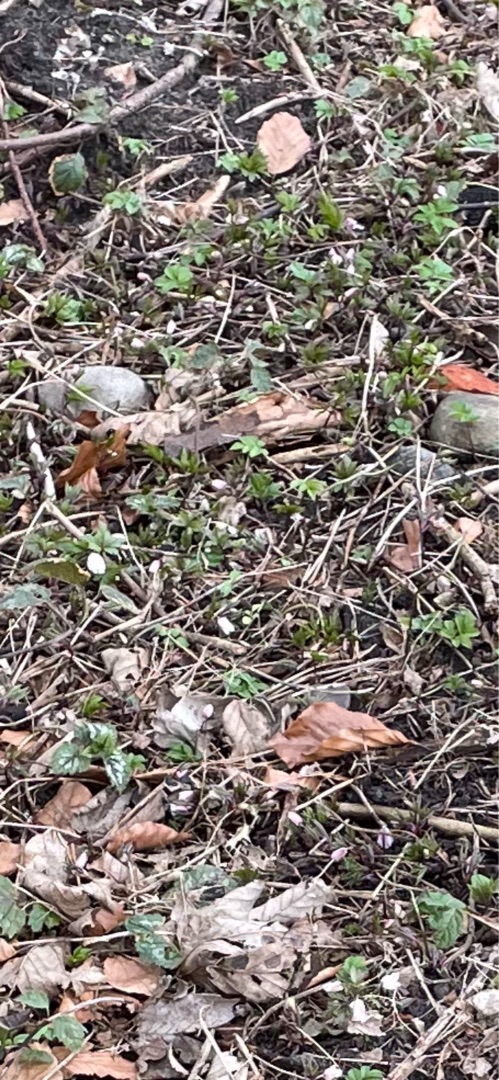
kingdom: Plantae
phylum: Tracheophyta
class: Magnoliopsida
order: Ranunculales
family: Ranunculaceae
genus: Anemone
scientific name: Anemone nemorosa
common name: Hvid anemone
